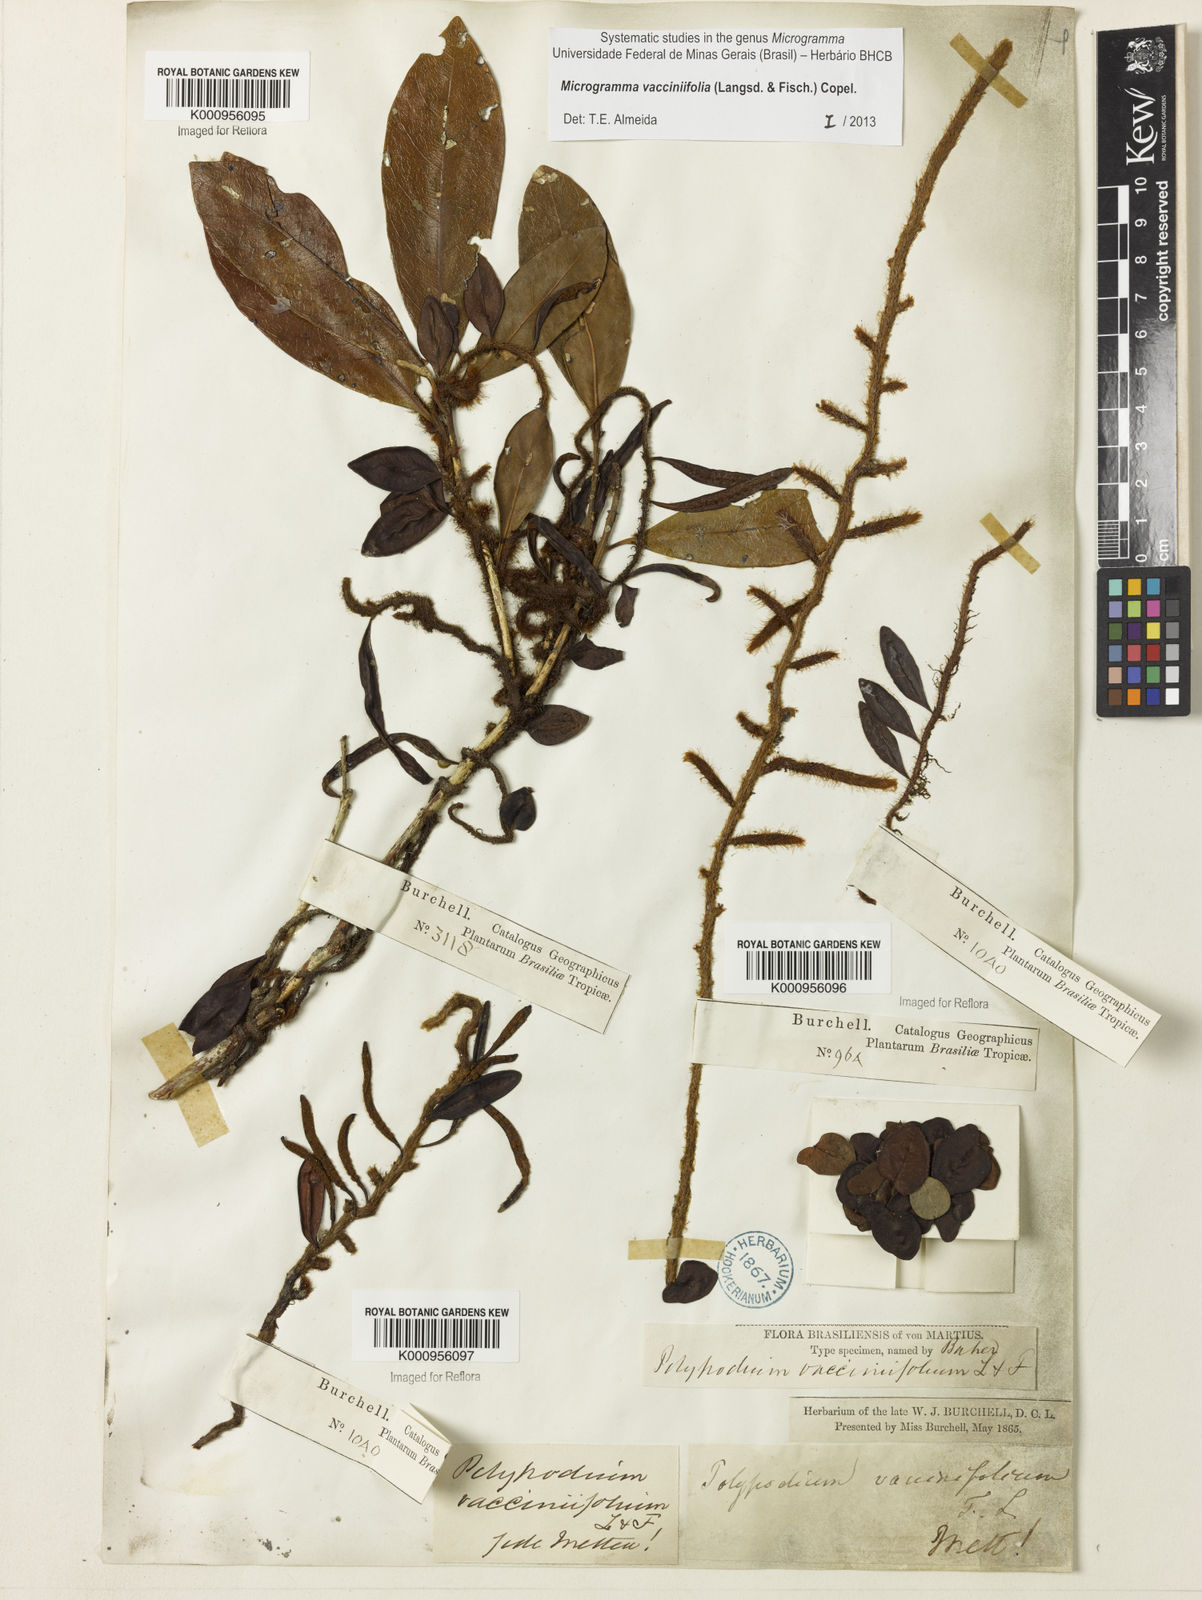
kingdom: Plantae
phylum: Tracheophyta
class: Polypodiopsida
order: Polypodiales
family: Polypodiaceae
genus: Phlebodium
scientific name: Phlebodium
